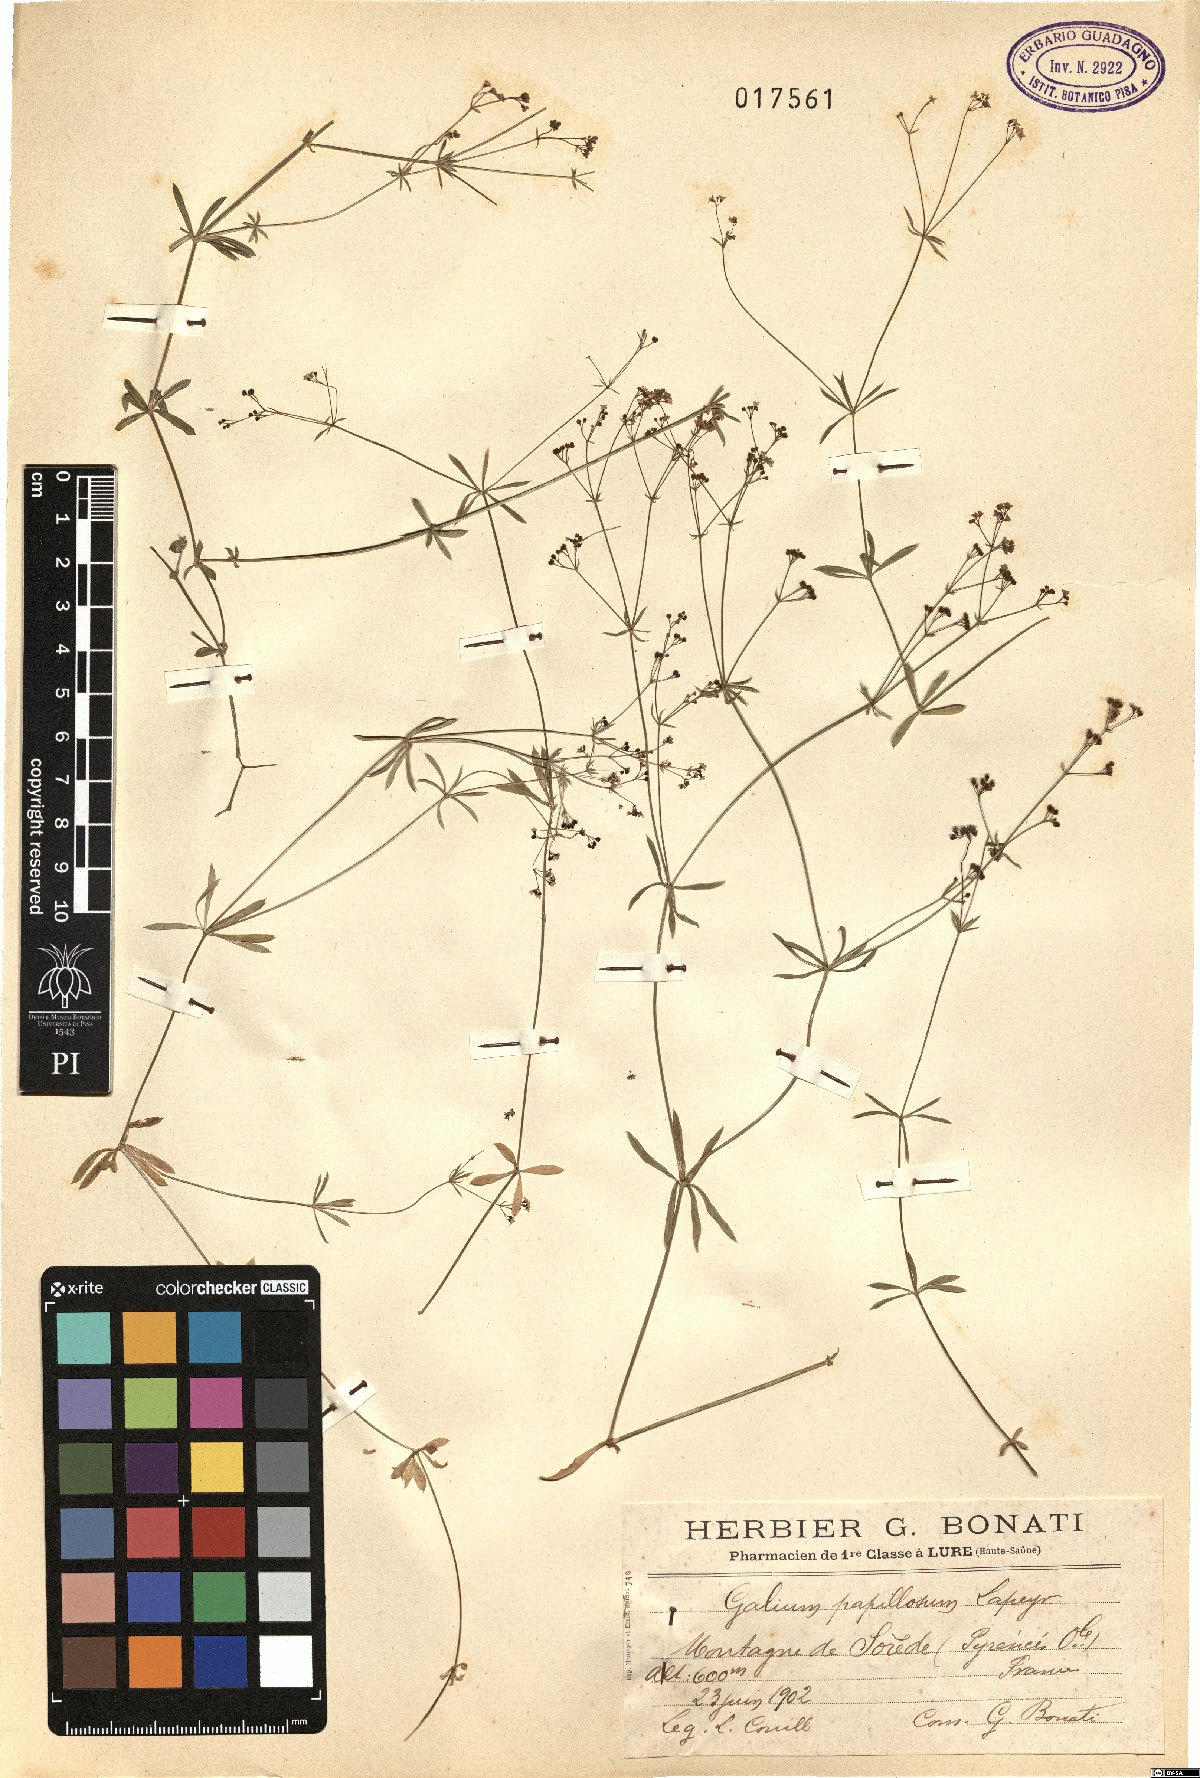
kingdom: Plantae
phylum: Tracheophyta
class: Magnoliopsida
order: Gentianales
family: Rubiaceae
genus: Galium
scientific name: Galium papillosum
